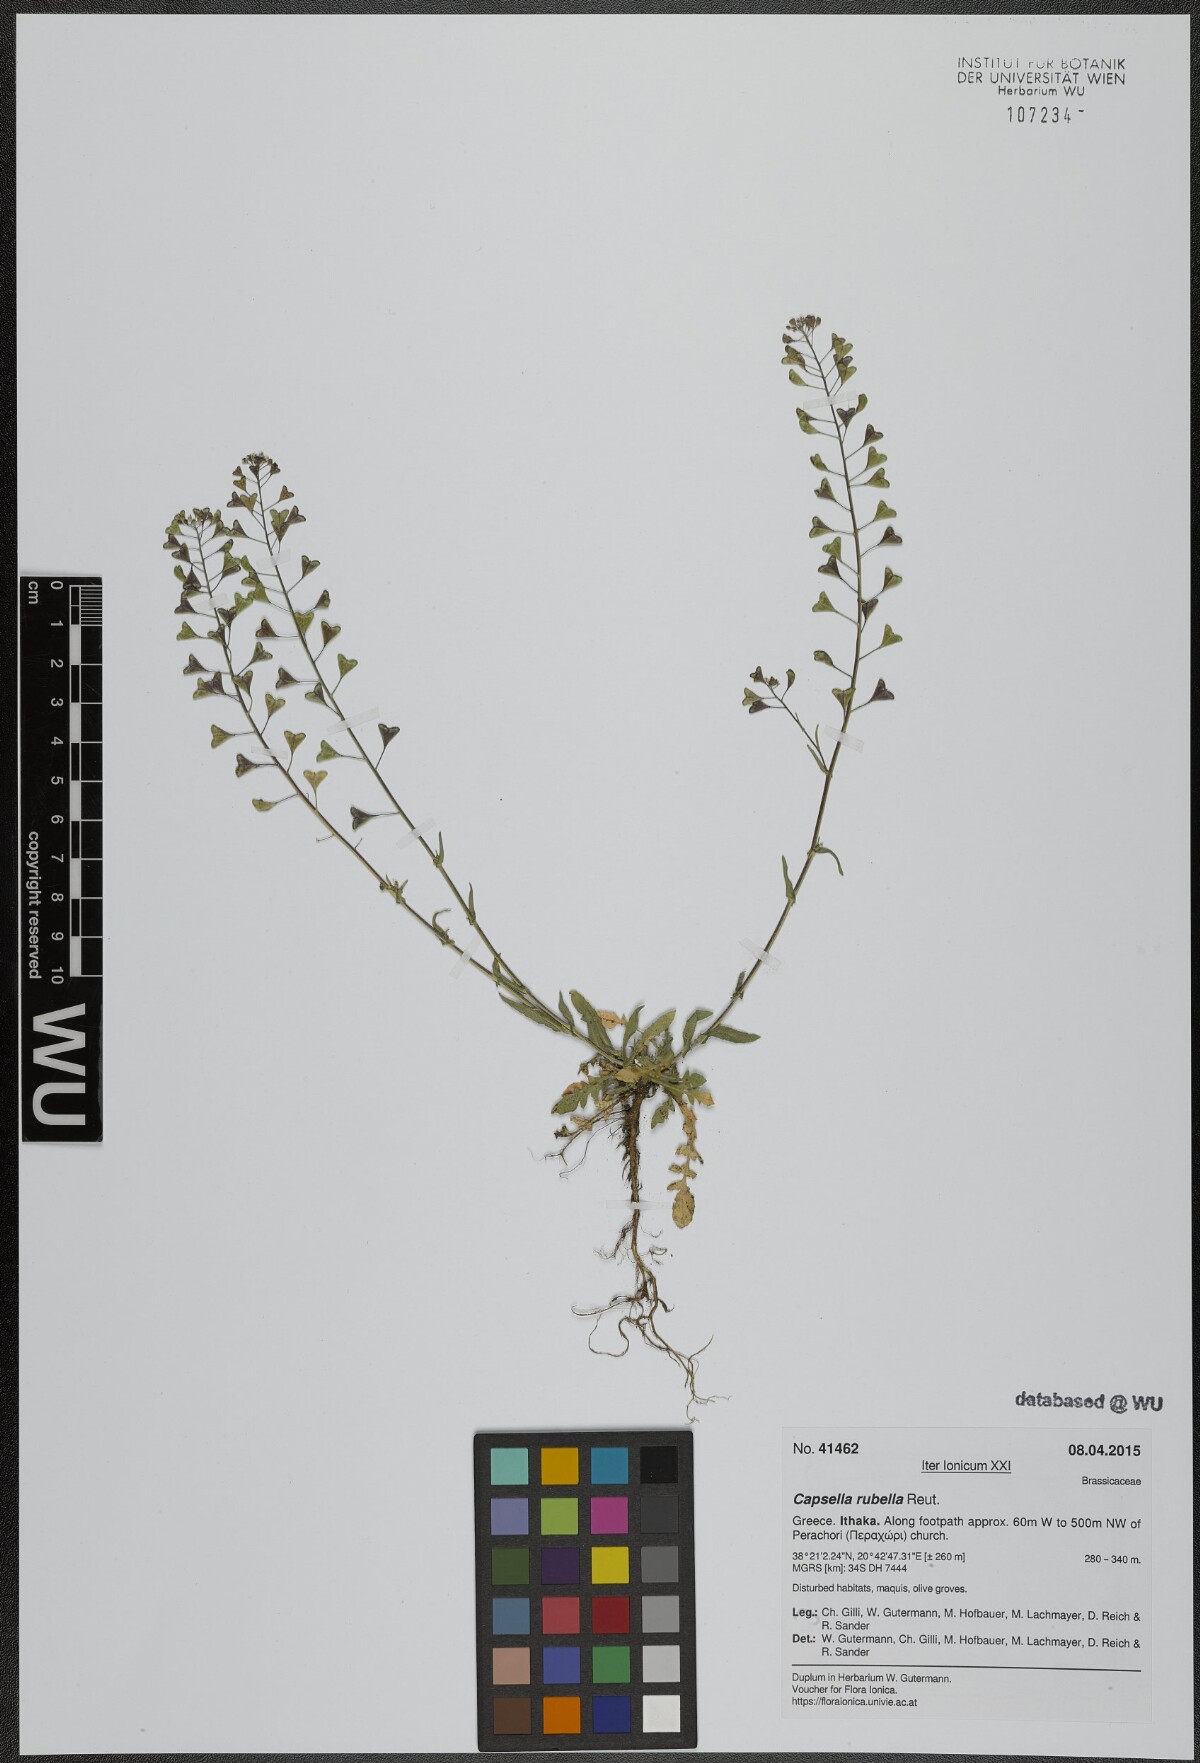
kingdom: Plantae
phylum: Tracheophyta
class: Magnoliopsida
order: Brassicales
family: Brassicaceae
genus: Capsella
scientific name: Capsella rubella
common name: Pink shepherd's-purse
